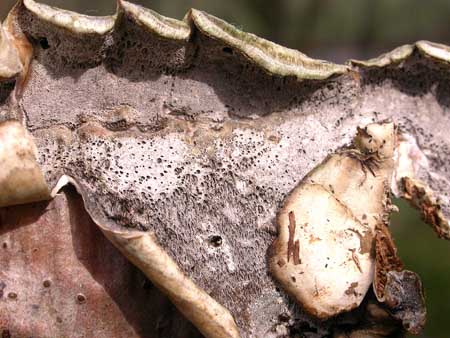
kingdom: Fungi
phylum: Basidiomycota
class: Agaricomycetes
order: Polyporales
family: Phanerochaetaceae
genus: Bjerkandera
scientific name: Bjerkandera adusta
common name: sveden sodporesvamp
